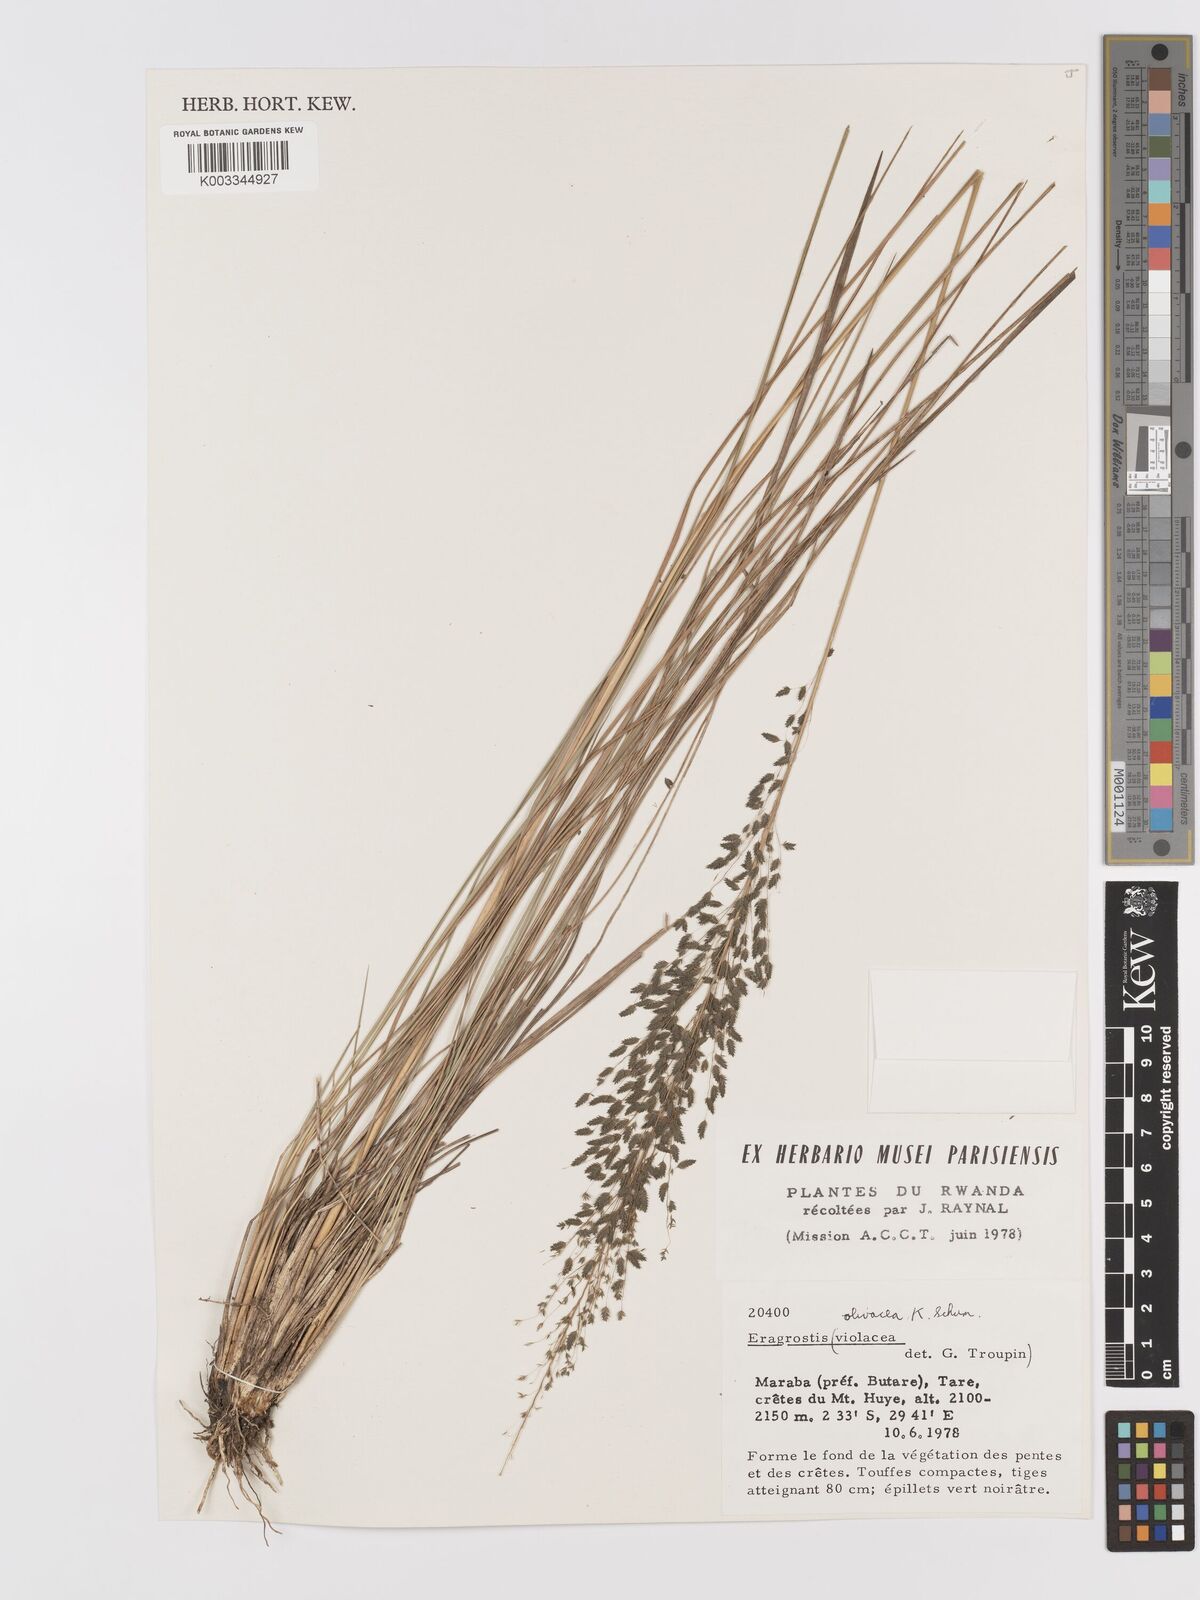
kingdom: Plantae
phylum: Tracheophyta
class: Liliopsida
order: Poales
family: Poaceae
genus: Eragrostis
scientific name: Eragrostis olivacea
